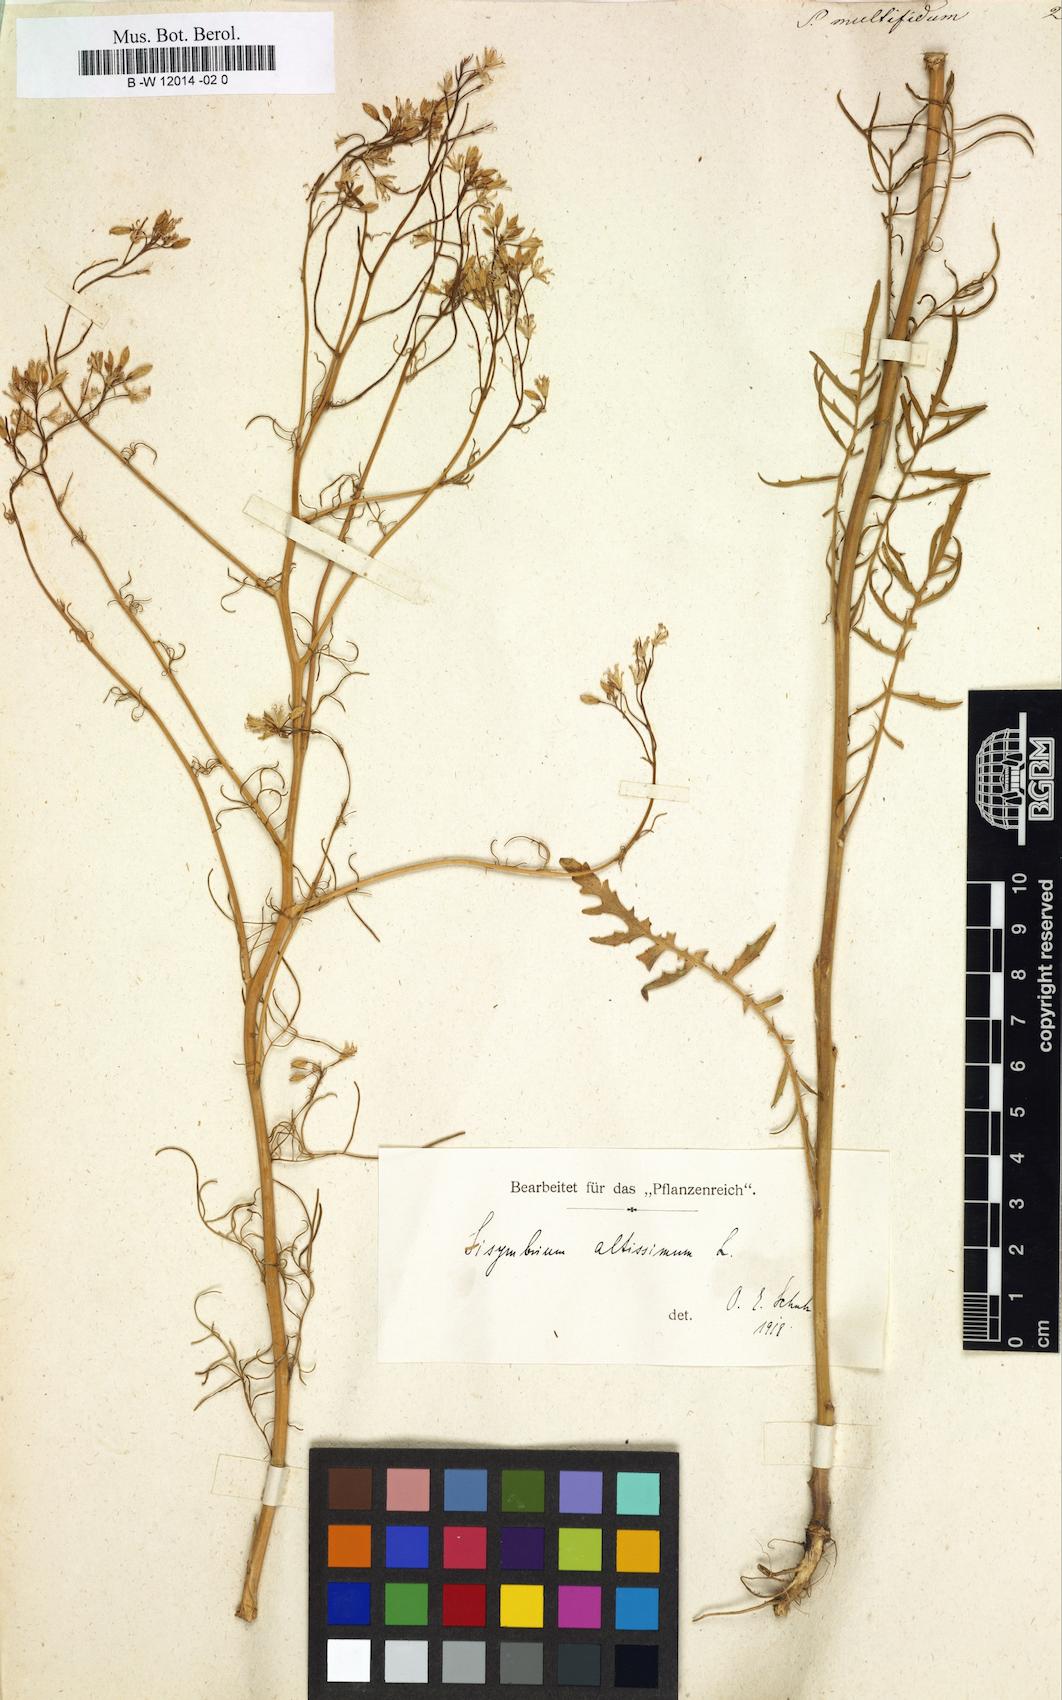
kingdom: Plantae
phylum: Tracheophyta
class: Magnoliopsida
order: Brassicales
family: Brassicaceae
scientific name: Brassicaceae
